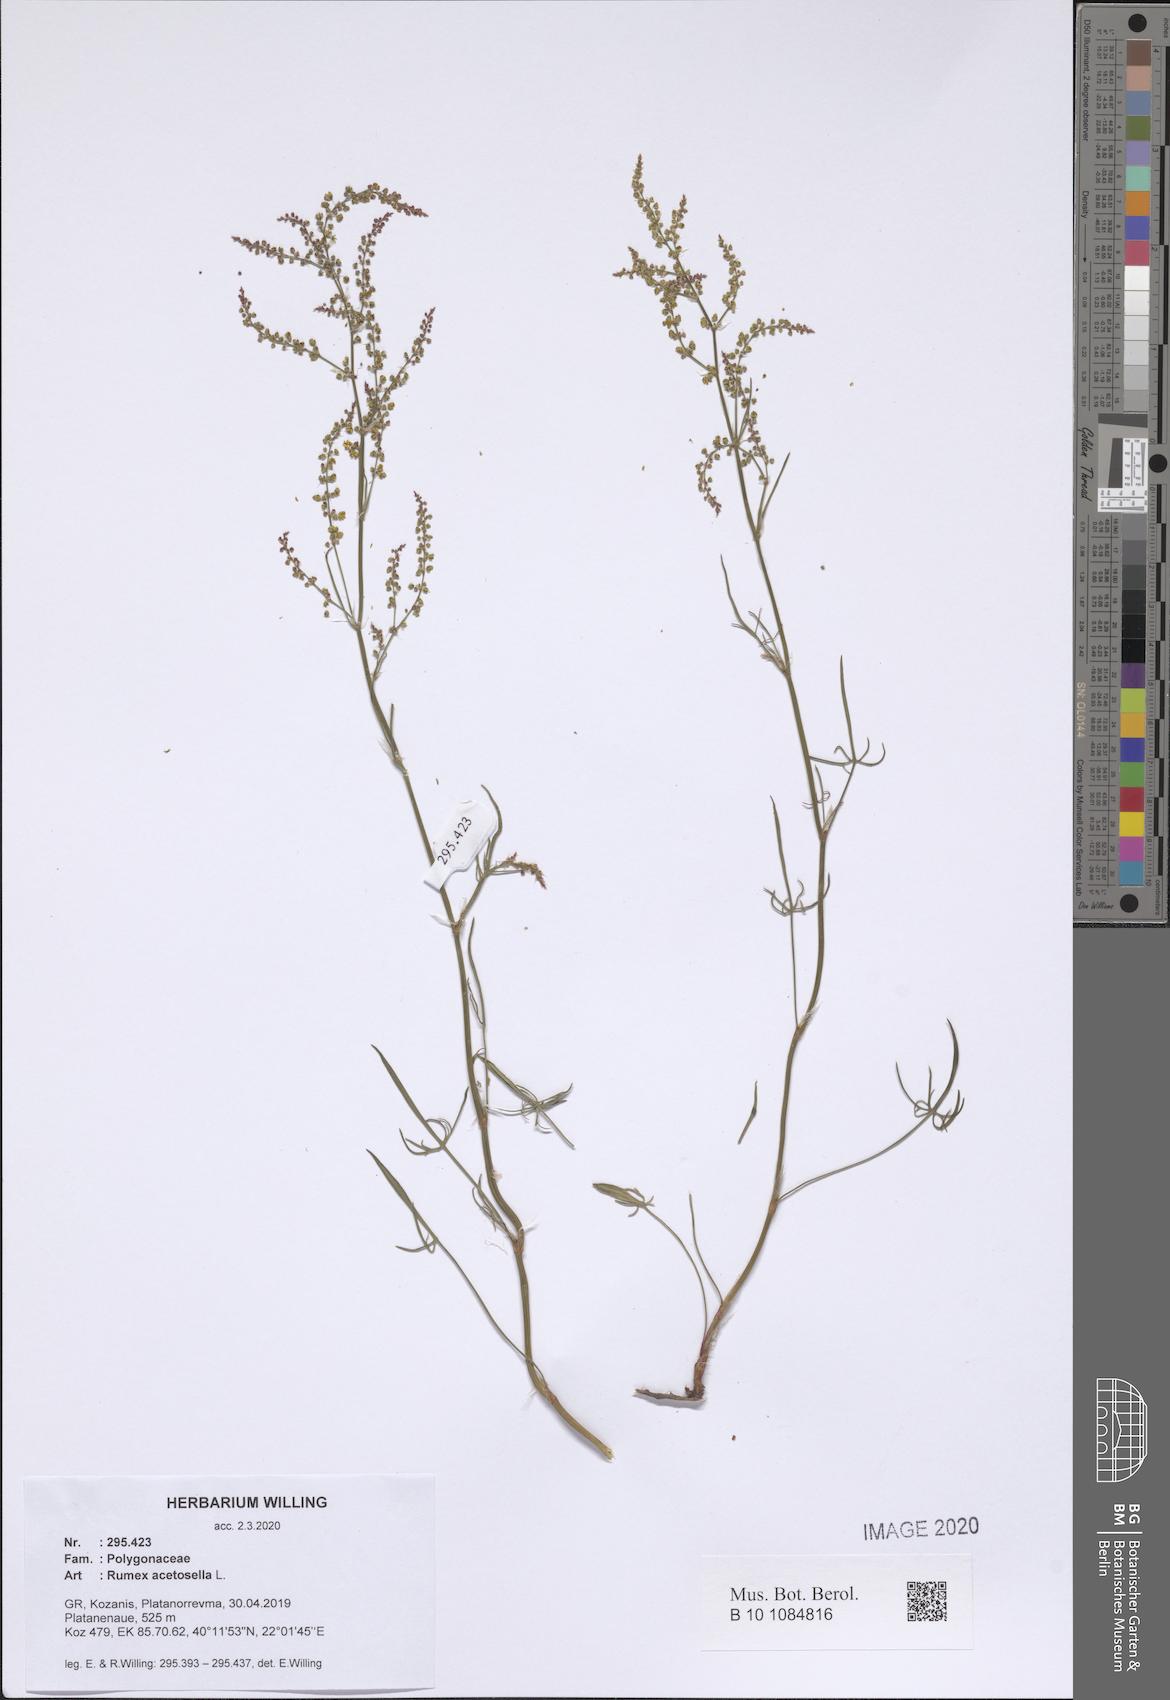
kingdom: Plantae
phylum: Tracheophyta
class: Magnoliopsida
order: Caryophyllales
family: Polygonaceae
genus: Rumex
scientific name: Rumex acetosella
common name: Common sheep sorrel
